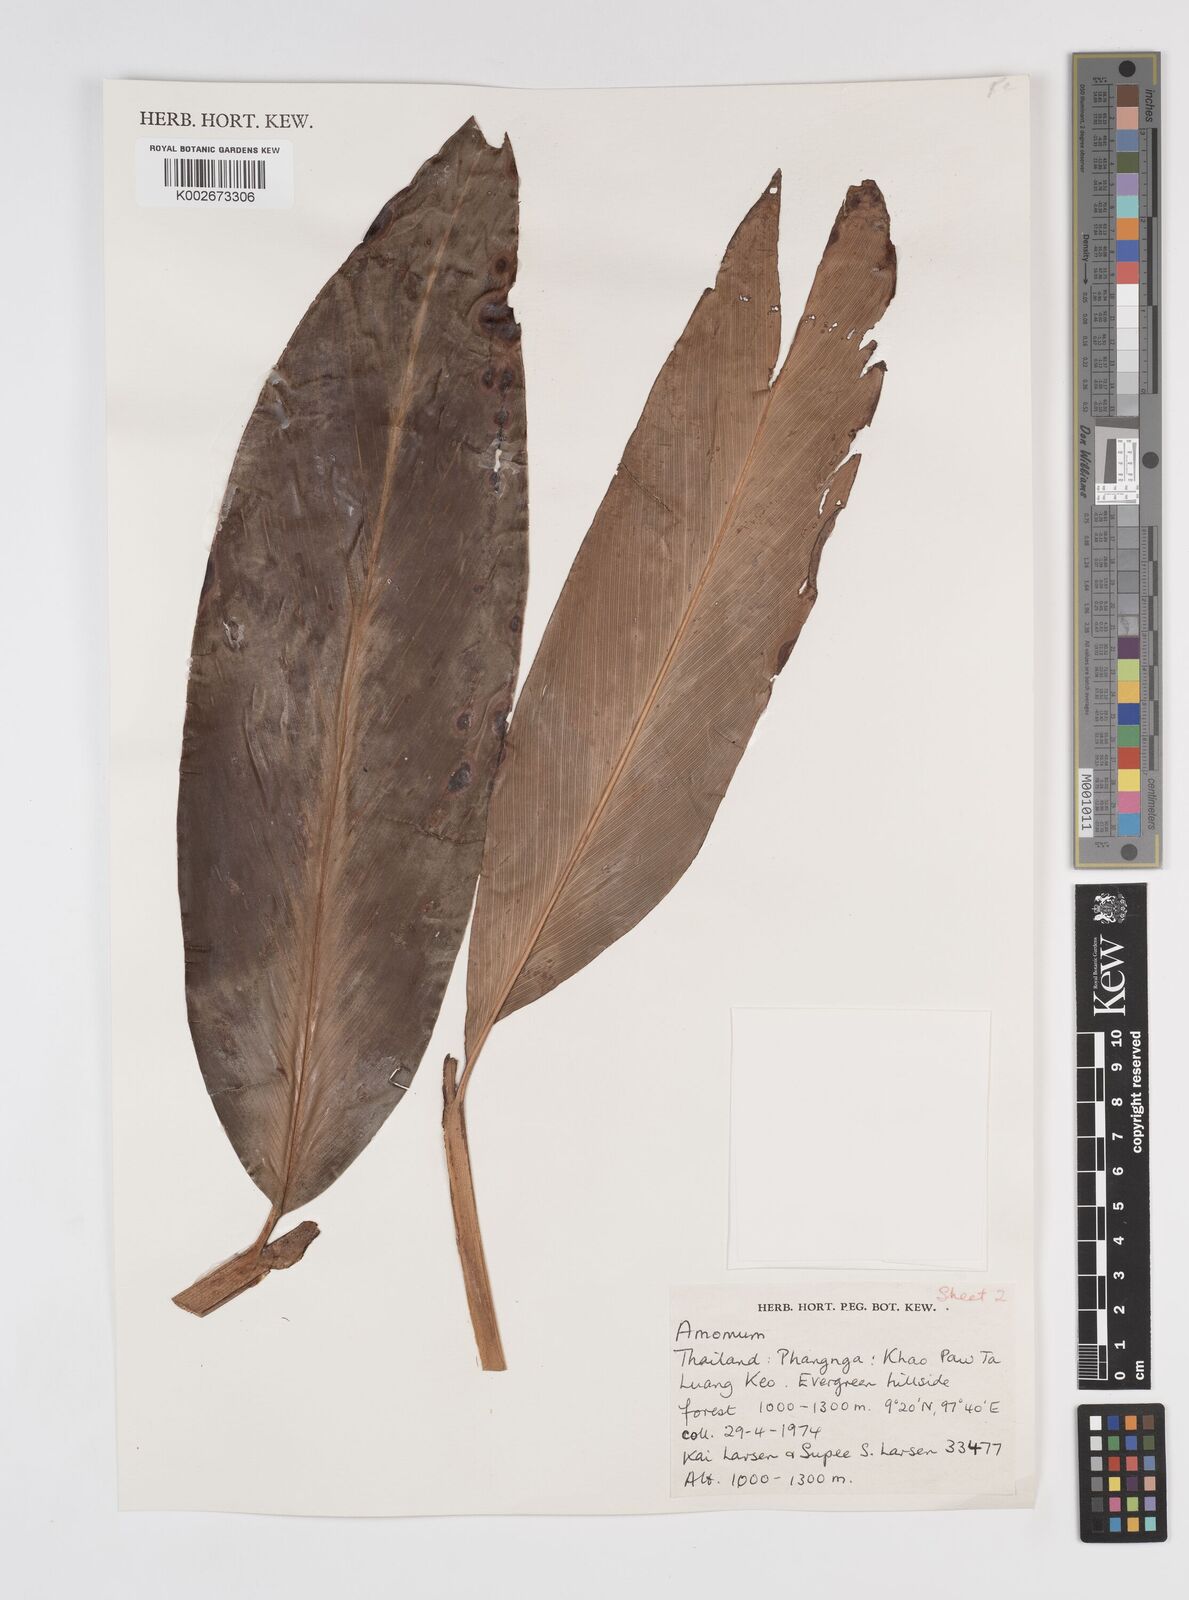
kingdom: Plantae
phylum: Tracheophyta
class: Liliopsida
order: Zingiberales
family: Zingiberaceae
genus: Amomum
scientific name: Amomum
